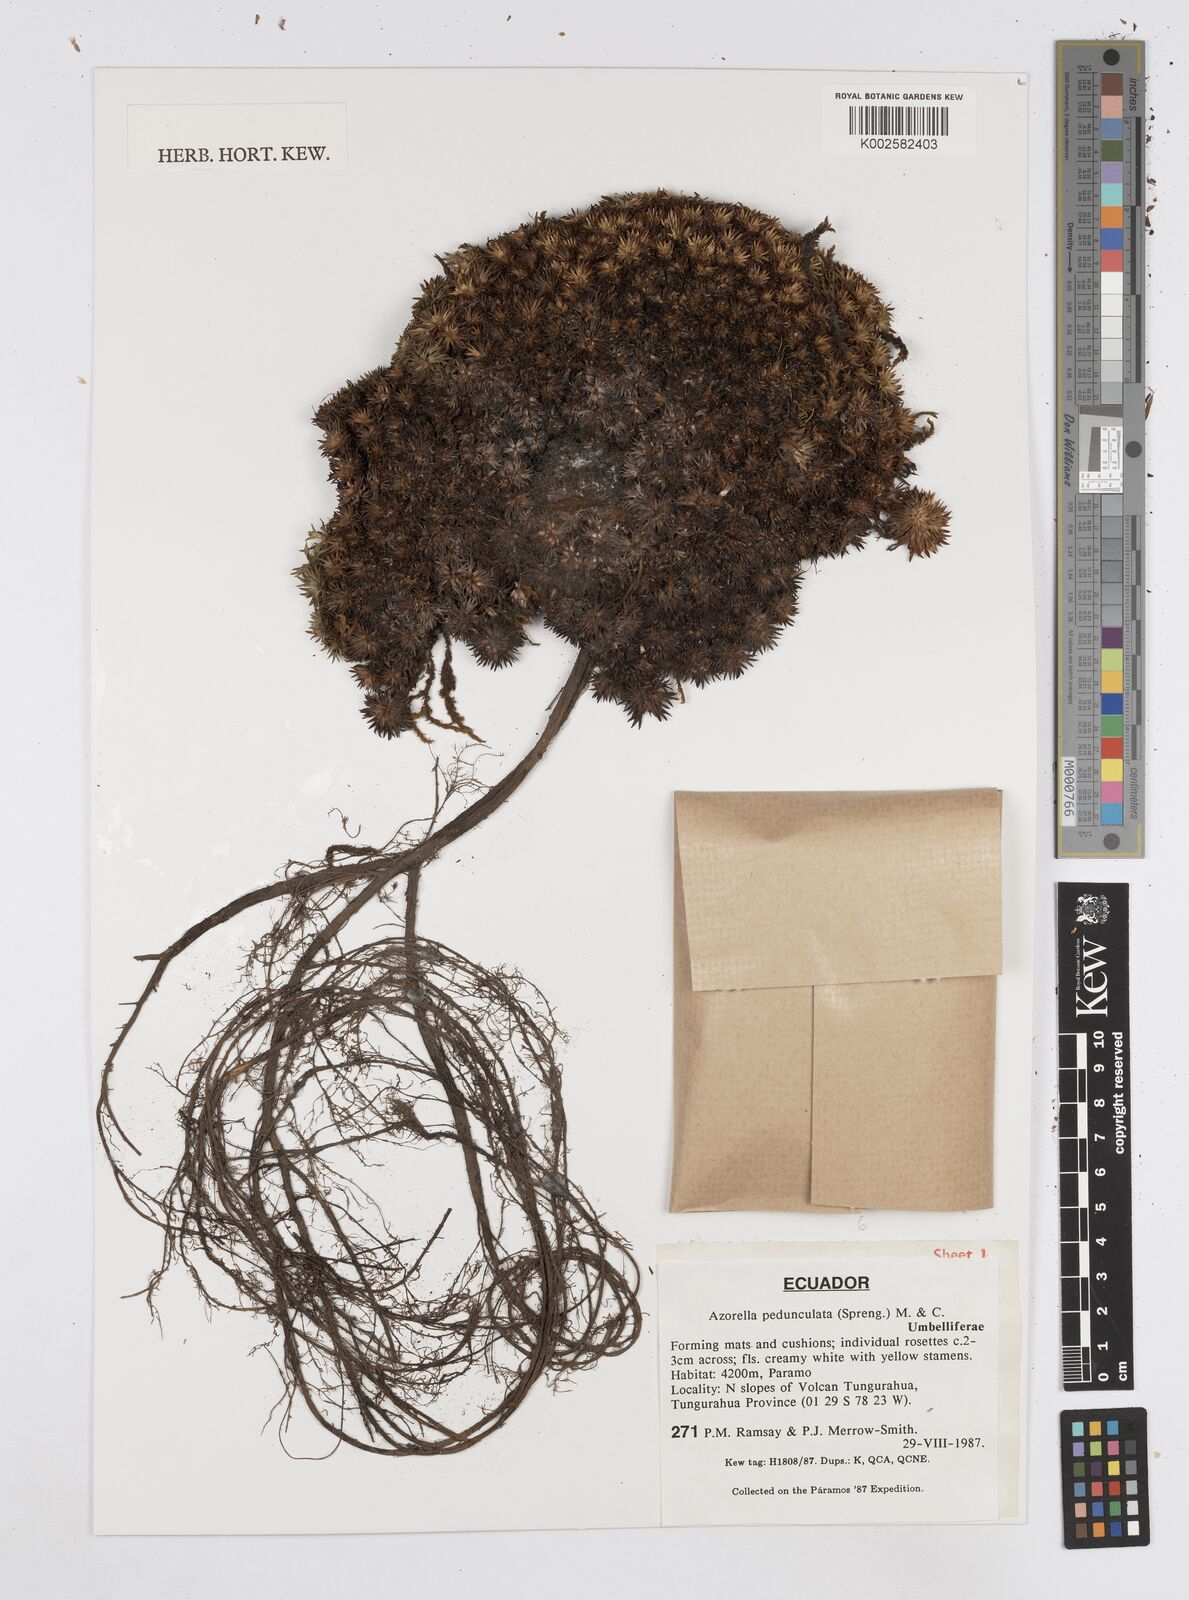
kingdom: Plantae
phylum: Tracheophyta
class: Magnoliopsida
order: Apiales
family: Apiaceae
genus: Azorella
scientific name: Azorella pedunculata
